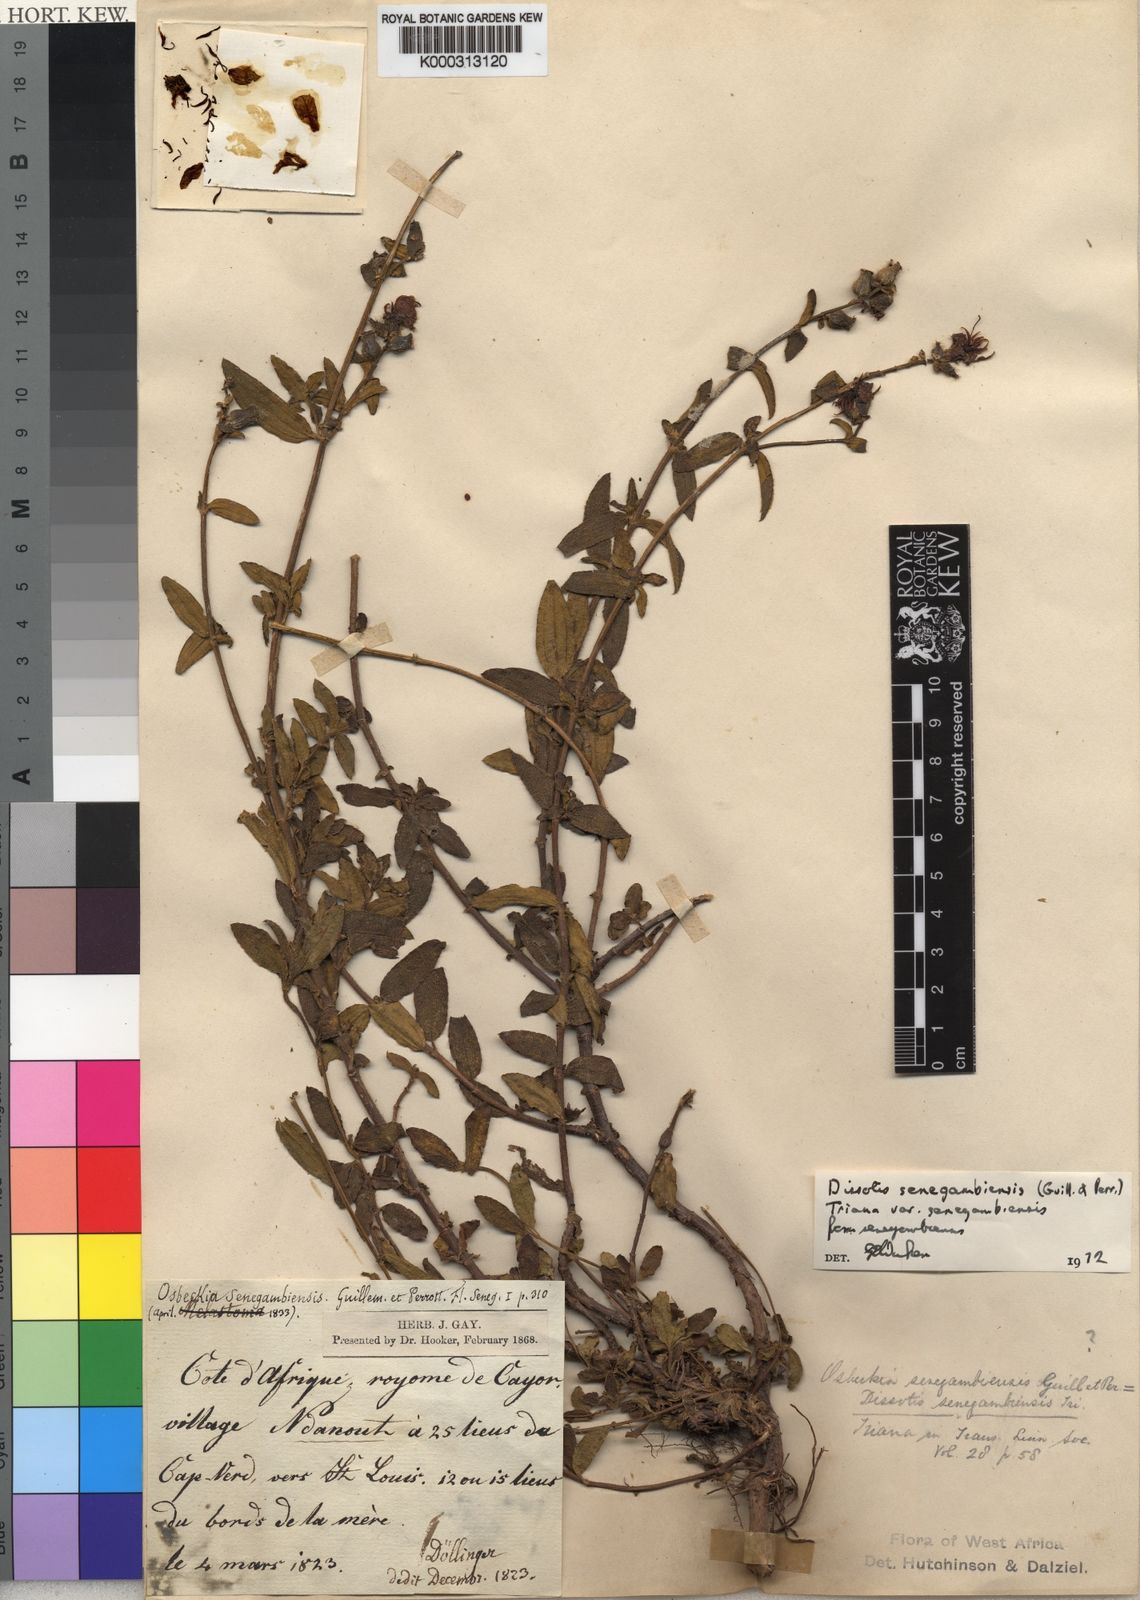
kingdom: Plantae
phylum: Tracheophyta
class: Magnoliopsida
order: Myrtales
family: Melastomataceae
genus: Antherotoma
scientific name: Antherotoma
